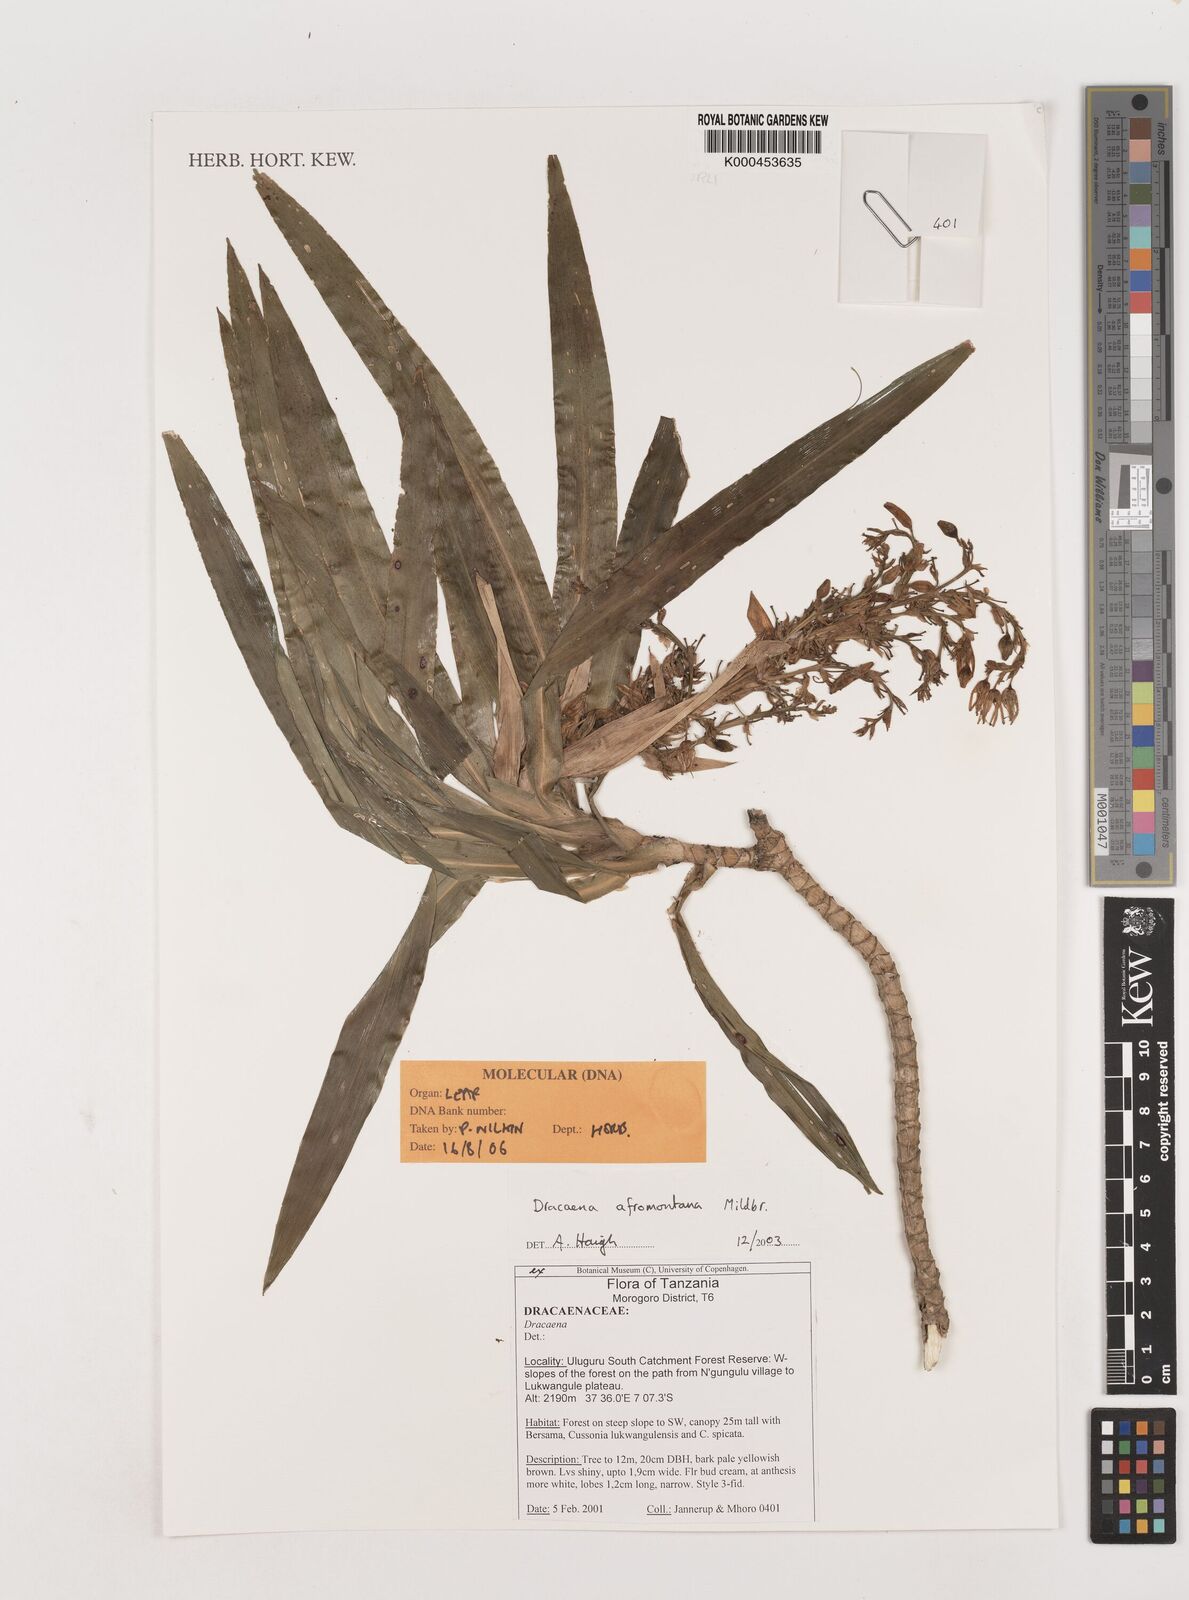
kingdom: Plantae
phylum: Tracheophyta
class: Liliopsida
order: Asparagales
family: Asparagaceae
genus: Dracaena
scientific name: Dracaena afromontana
